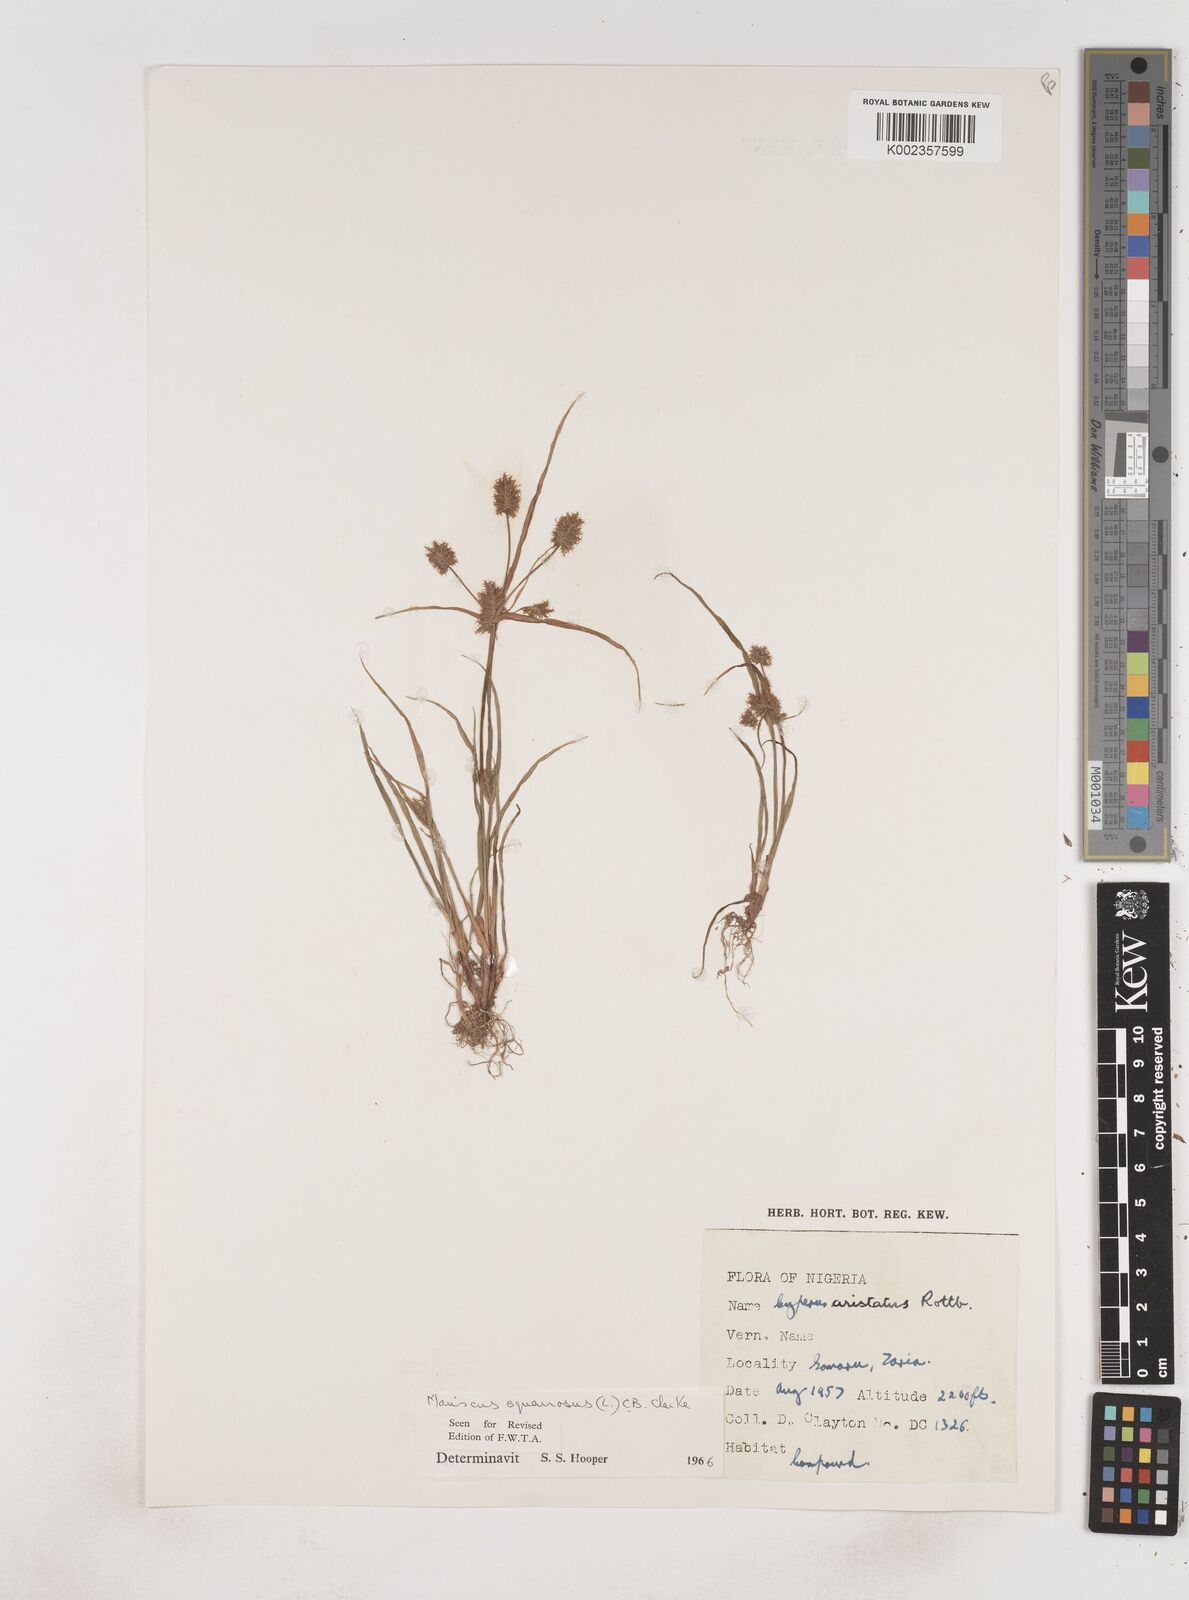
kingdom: Plantae
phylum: Tracheophyta
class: Liliopsida
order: Poales
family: Cyperaceae
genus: Cyperus
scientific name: Cyperus squarrosus
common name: Awned cyperus
